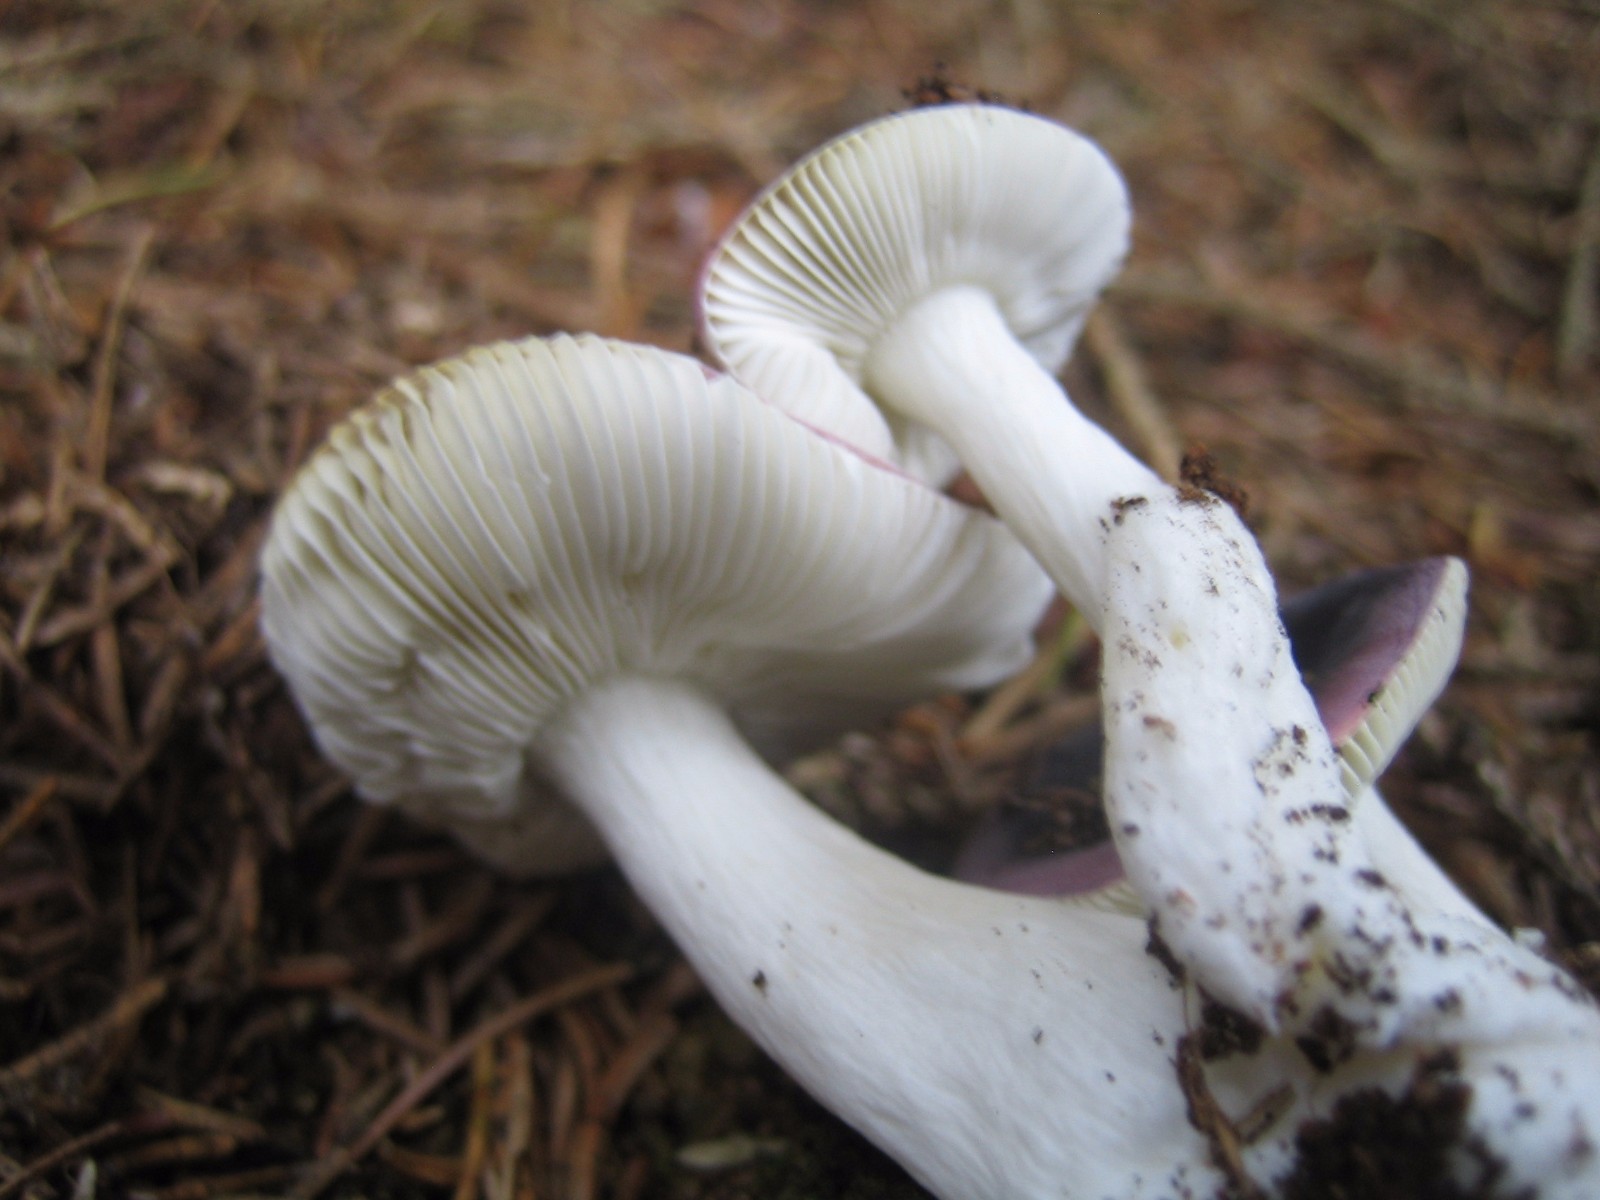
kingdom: Fungi
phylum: Basidiomycota
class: Agaricomycetes
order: Russulales
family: Russulaceae
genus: Russula
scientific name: Russula
